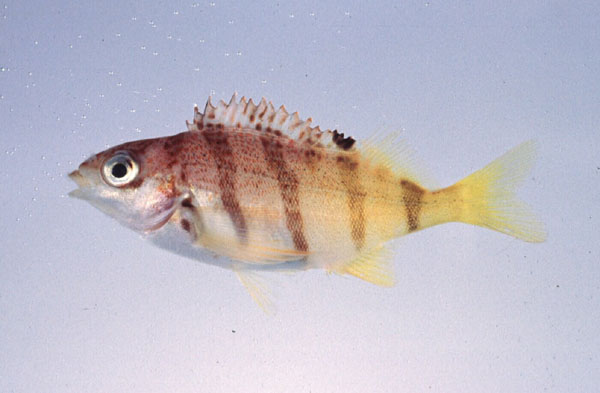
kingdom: Animalia
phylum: Chordata
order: Perciformes
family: Cheilodactylidae
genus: Cheilodactylus
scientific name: Cheilodactylus pixi
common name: Barred fingerfin
